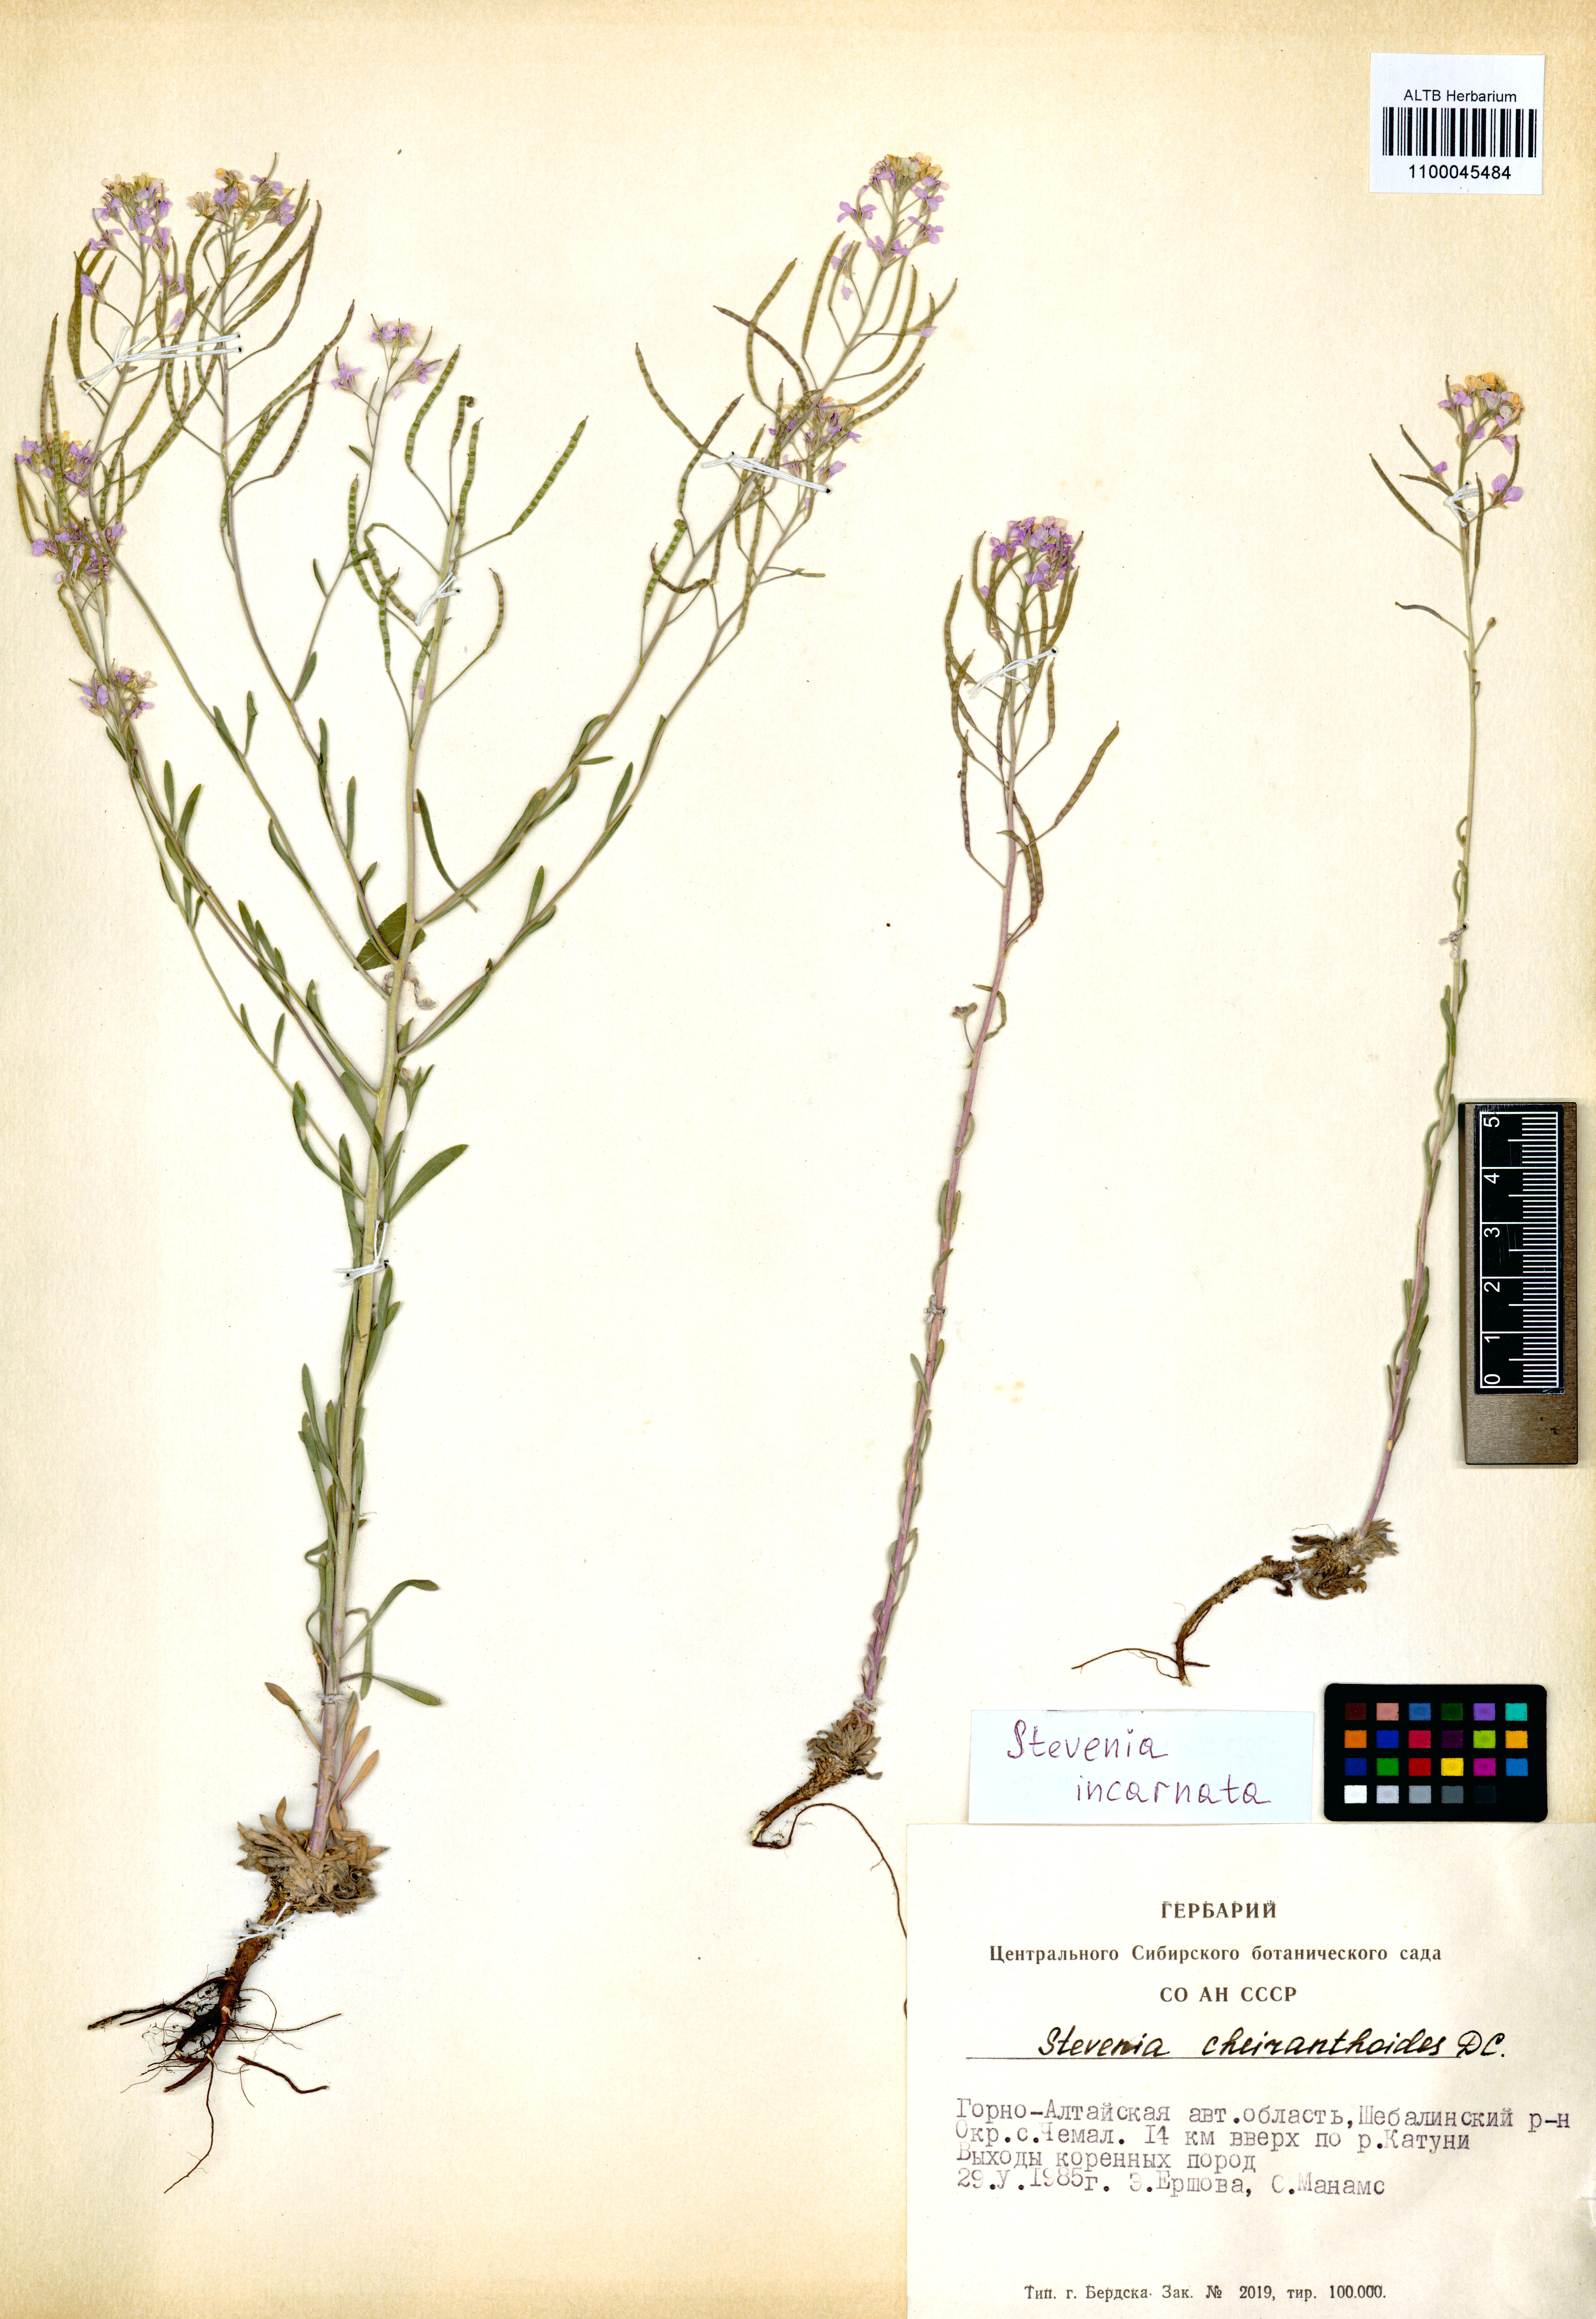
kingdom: Plantae
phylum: Tracheophyta
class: Magnoliopsida
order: Brassicales
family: Brassicaceae
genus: Stevenia
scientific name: Stevenia incarnata
